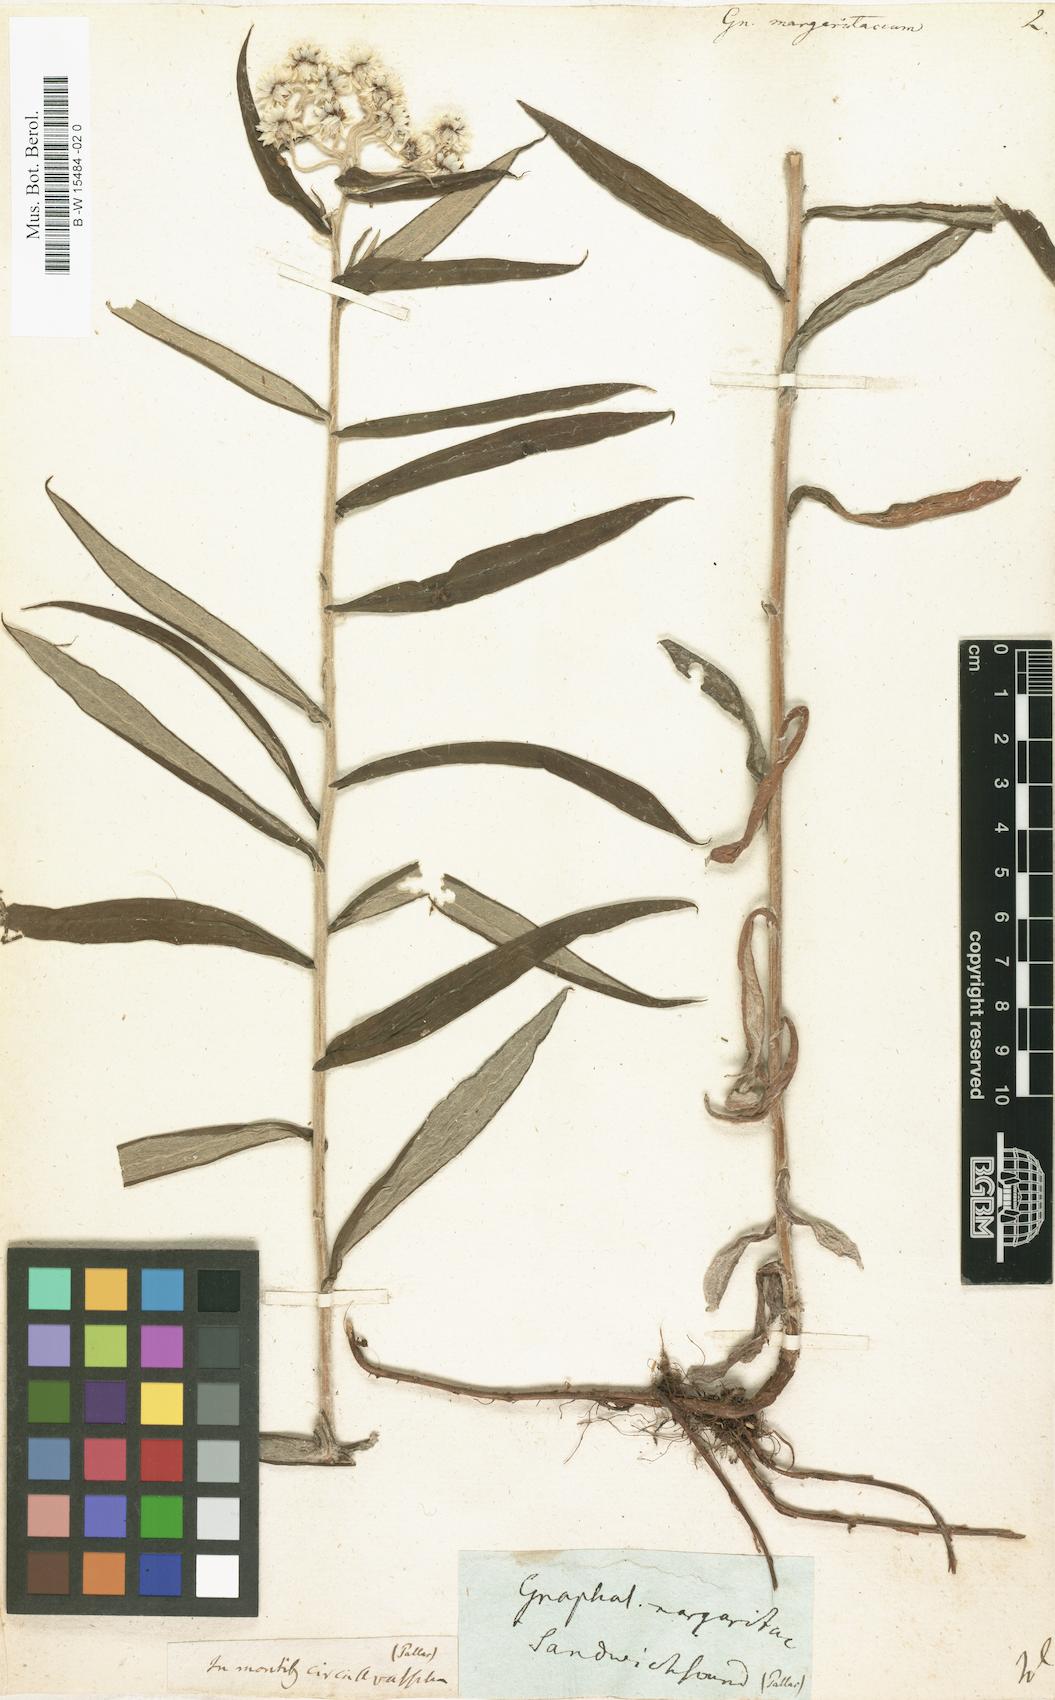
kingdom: Plantae
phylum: Tracheophyta
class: Magnoliopsida
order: Asterales
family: Asteraceae
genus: Anaphalis
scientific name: Anaphalis margaritacea
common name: Pearly everlasting
